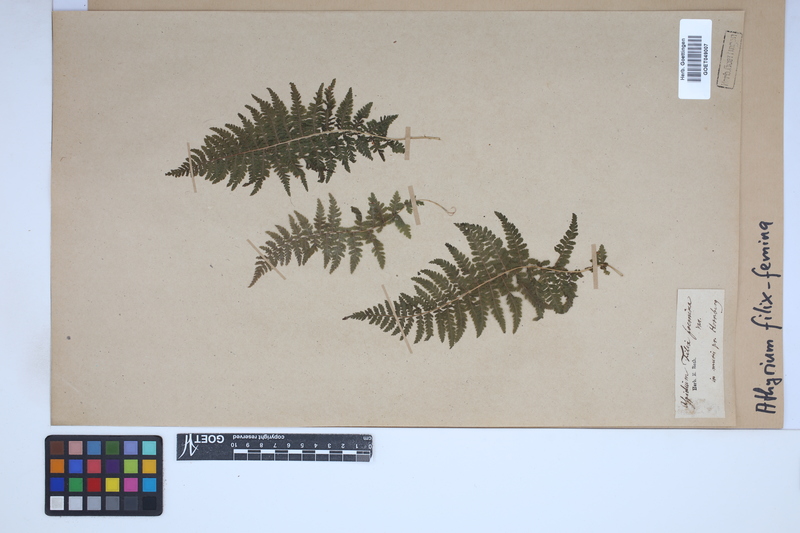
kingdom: Plantae
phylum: Tracheophyta
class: Polypodiopsida
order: Polypodiales
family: Athyriaceae
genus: Athyrium
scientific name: Athyrium filix-femina
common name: Lady fern
